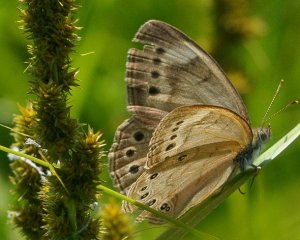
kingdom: Animalia
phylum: Arthropoda
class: Insecta
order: Lepidoptera
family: Nymphalidae
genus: Lethe
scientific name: Lethe eurydice
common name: Eyed Brown
